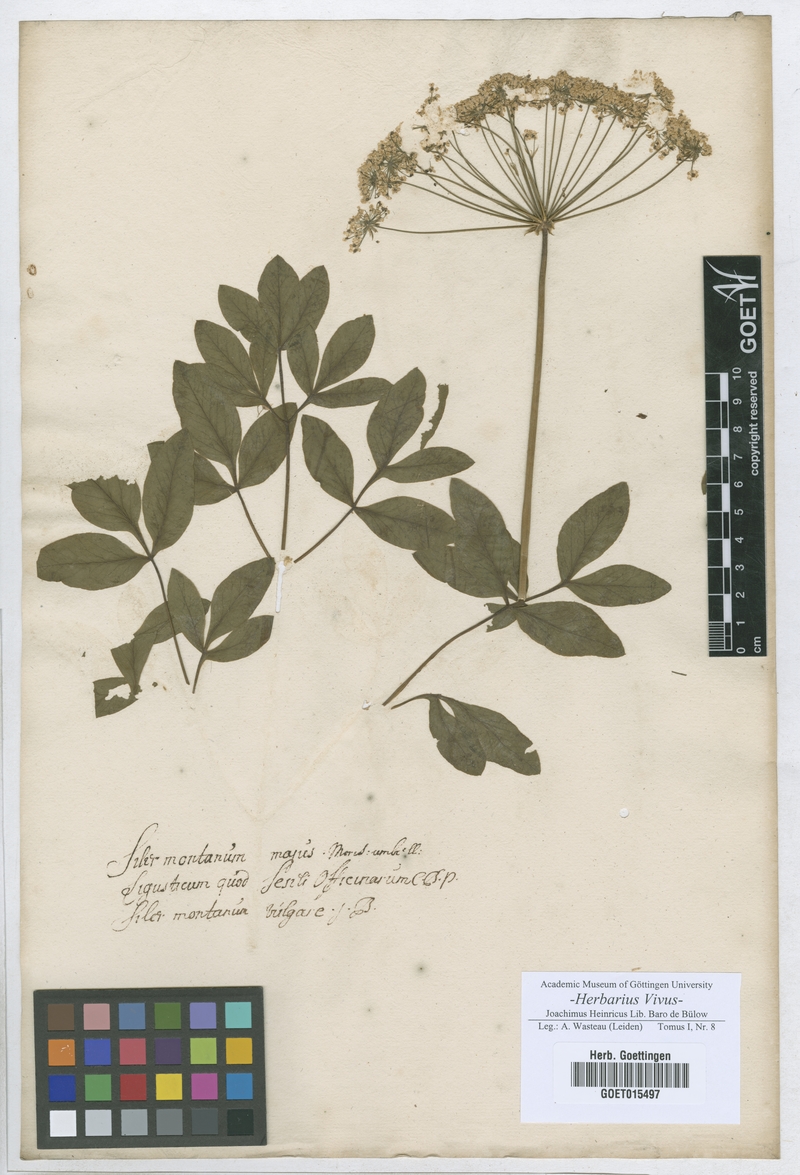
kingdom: Plantae
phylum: Tracheophyta
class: Magnoliopsida
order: Apiales
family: Apiaceae
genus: Siler
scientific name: Siler montanum
